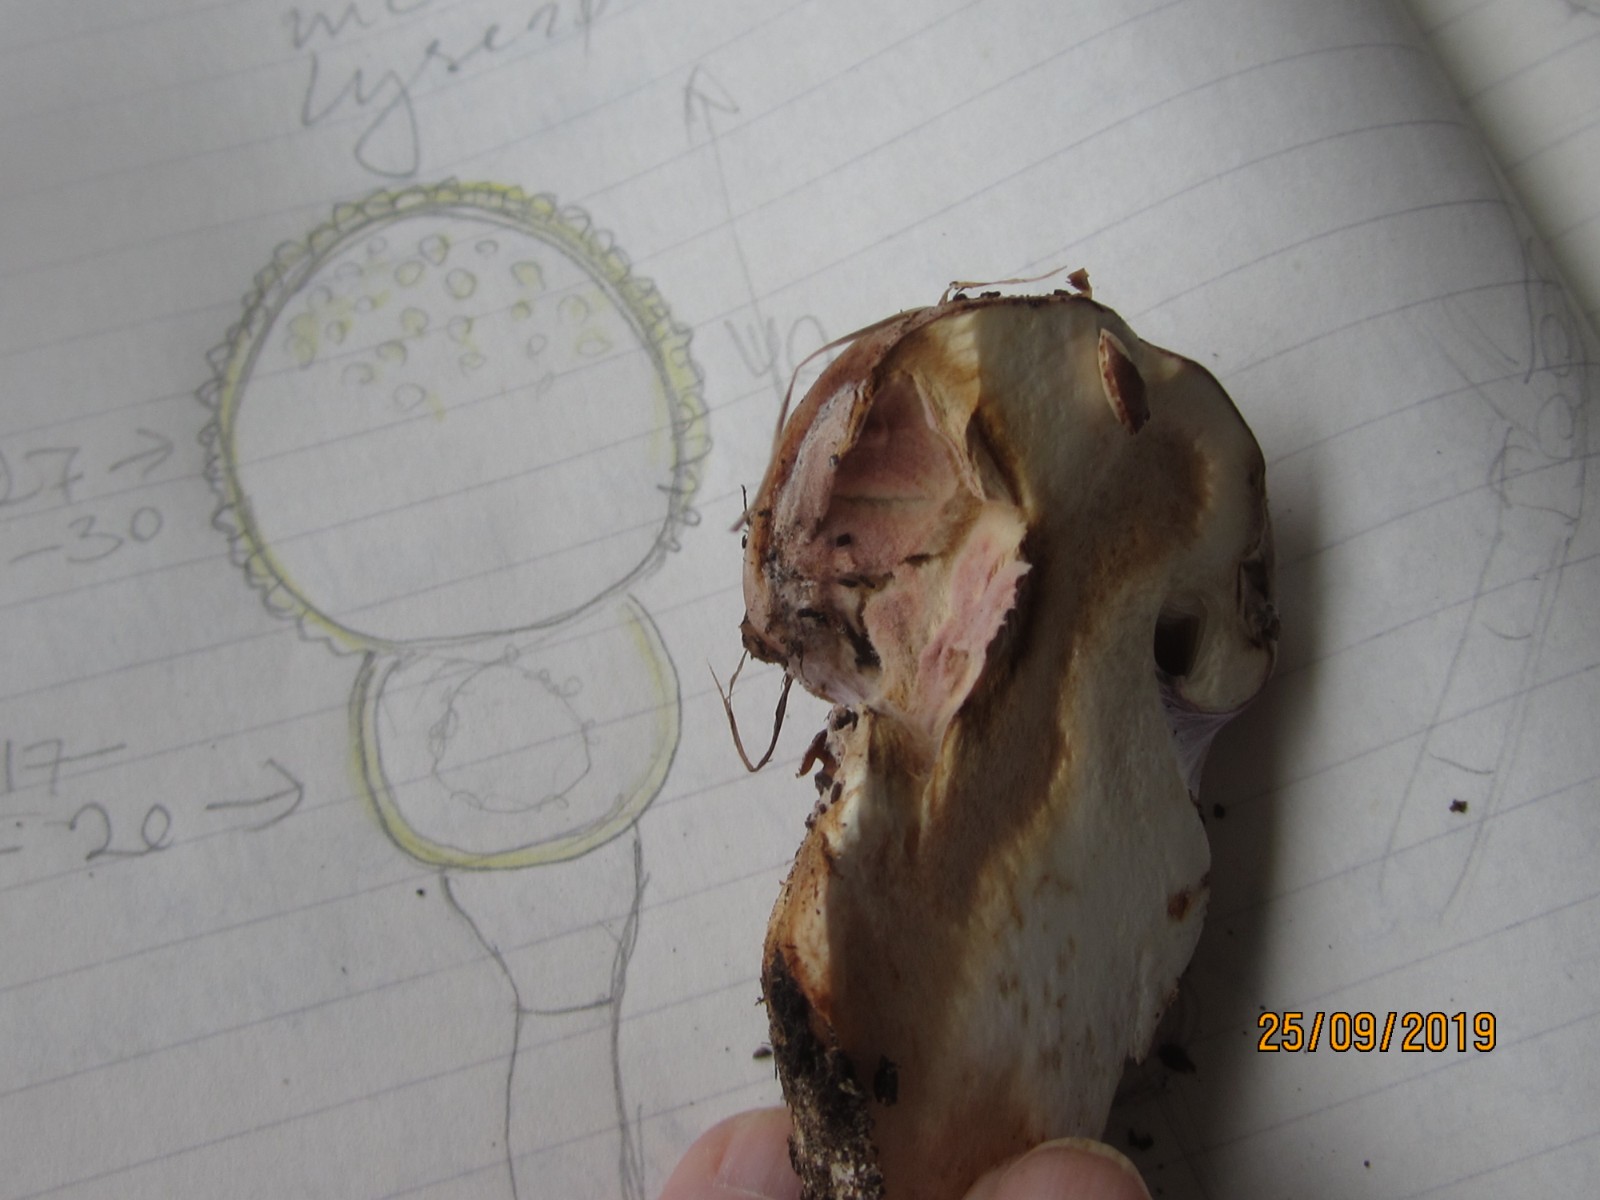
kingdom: Fungi
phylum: Ascomycota
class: Sordariomycetes
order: Hypocreales
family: Hypocreaceae
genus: Mycogone
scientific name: Mycogone rosea
